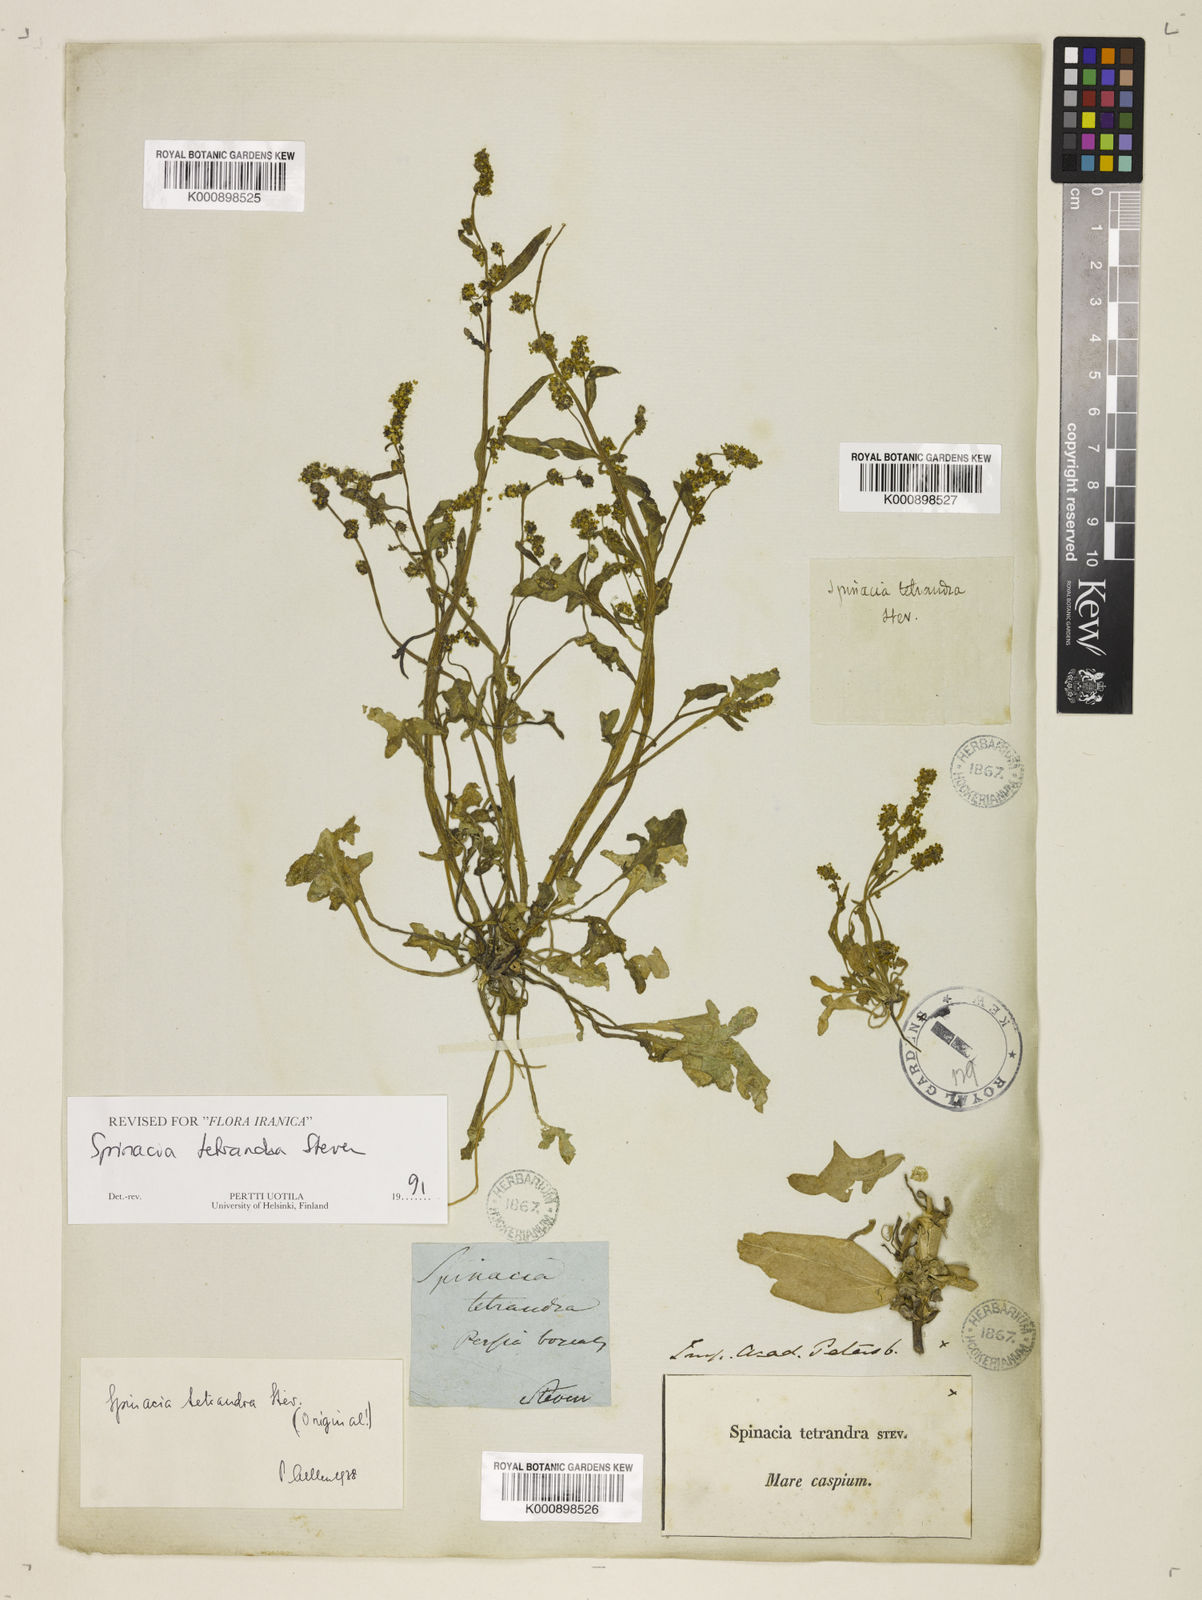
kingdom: Plantae
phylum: Tracheophyta
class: Magnoliopsida
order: Caryophyllales
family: Amaranthaceae
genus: Spinacia
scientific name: Spinacia tetrandra
